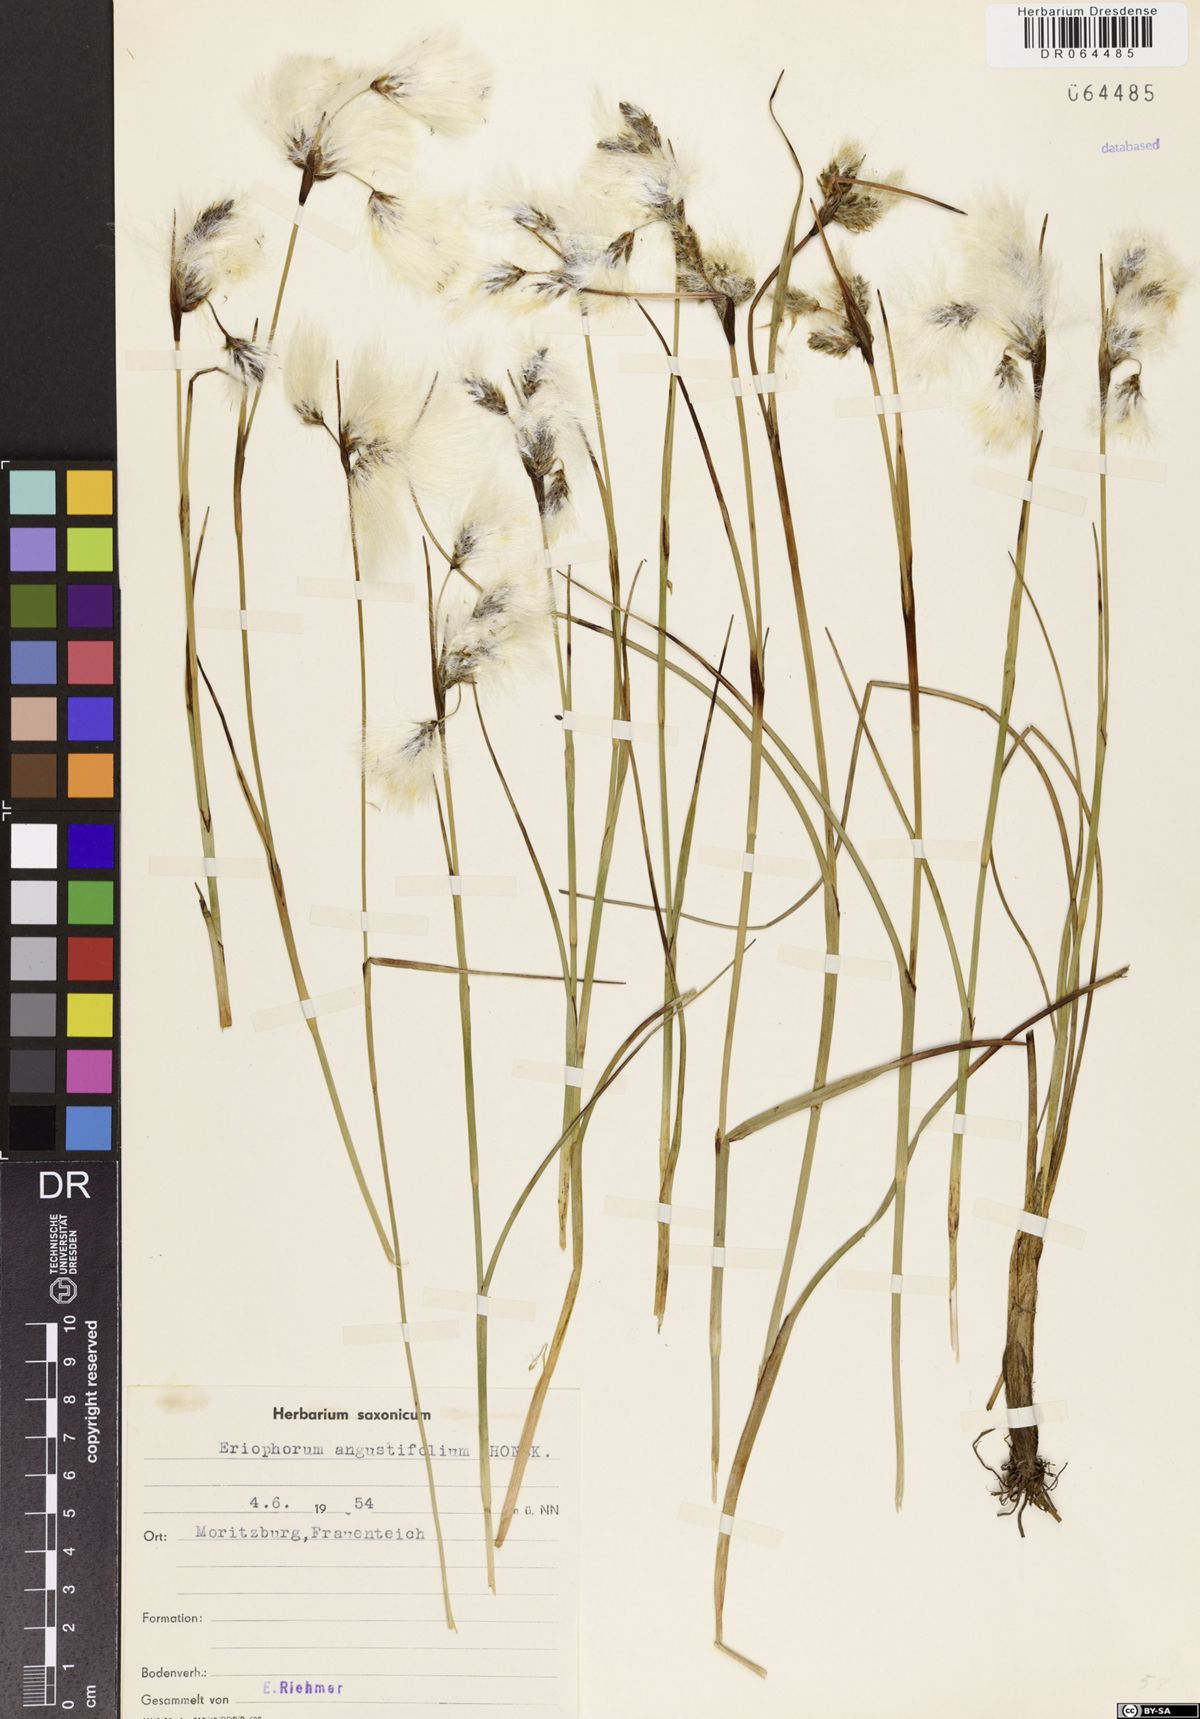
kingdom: Plantae
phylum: Tracheophyta
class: Liliopsida
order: Poales
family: Cyperaceae
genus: Eriophorum
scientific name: Eriophorum angustifolium
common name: Common cottongrass
